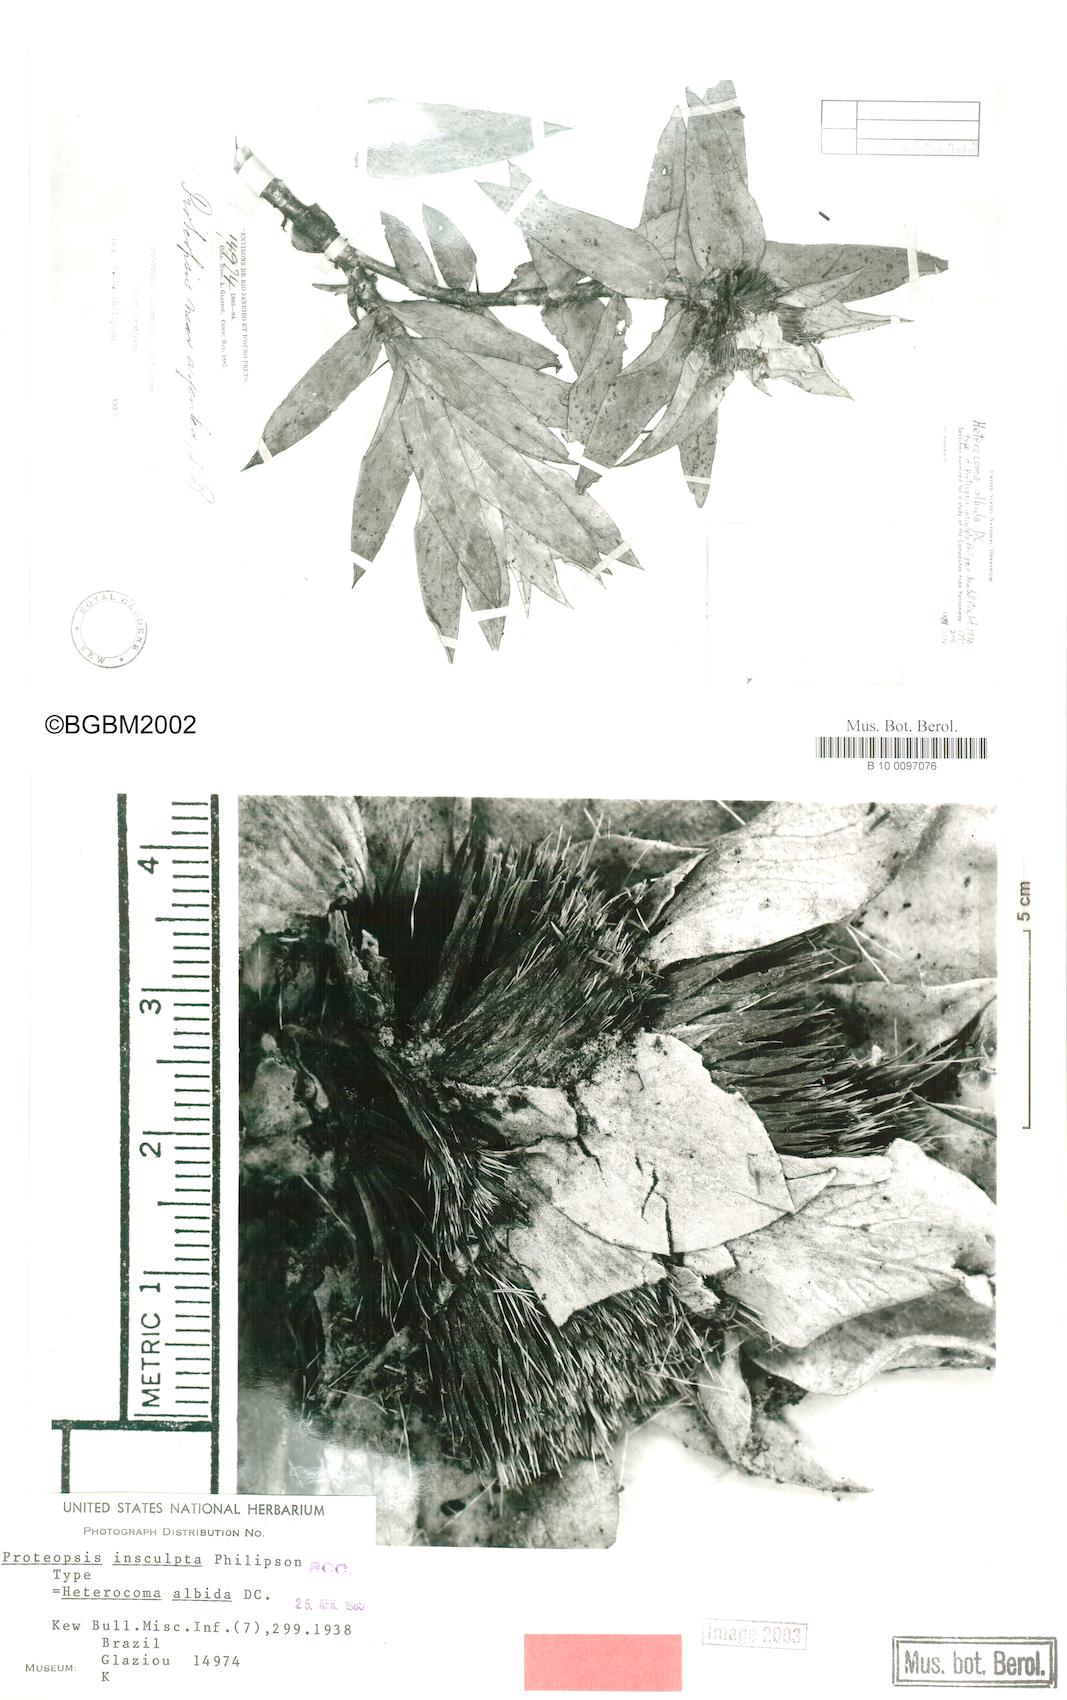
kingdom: Plantae
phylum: Tracheophyta
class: Magnoliopsida
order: Asterales
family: Asteraceae
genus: Heterocoma
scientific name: Heterocoma albida
